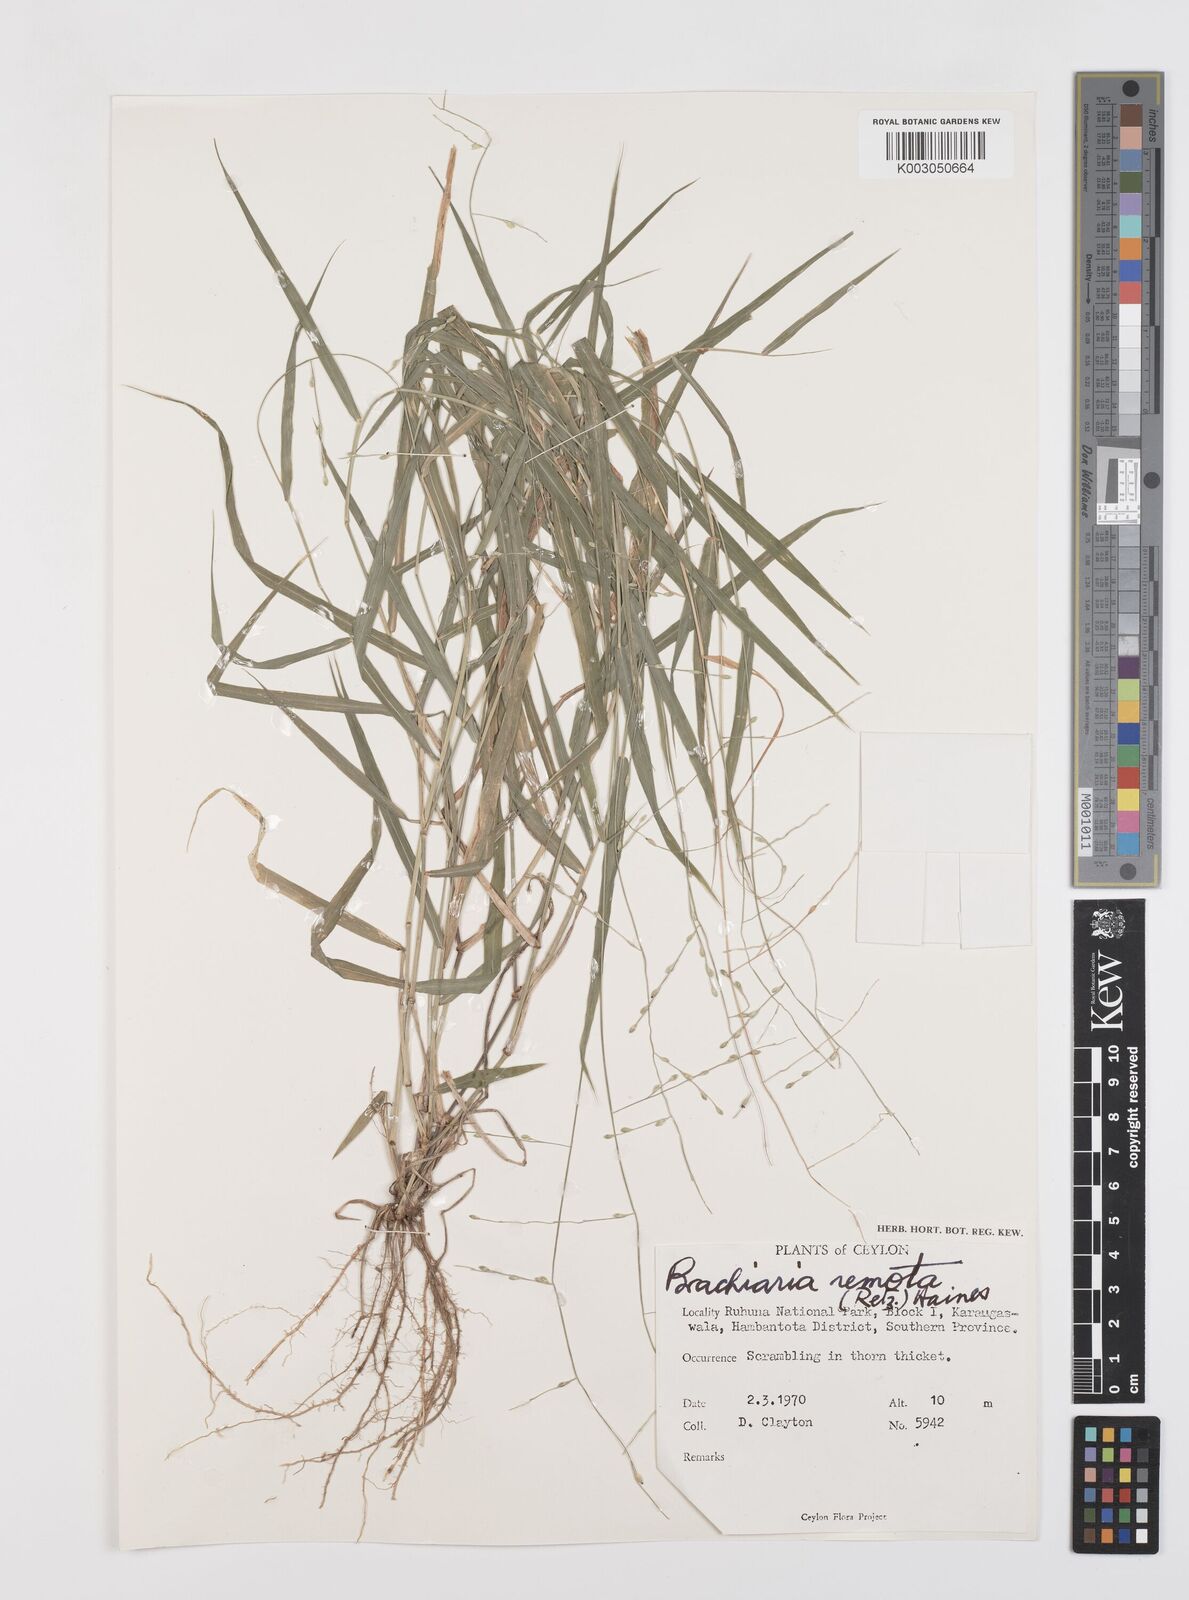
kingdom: Plantae
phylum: Tracheophyta
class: Liliopsida
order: Poales
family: Poaceae
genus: Urochloa
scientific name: Urochloa Brachiaria remota
